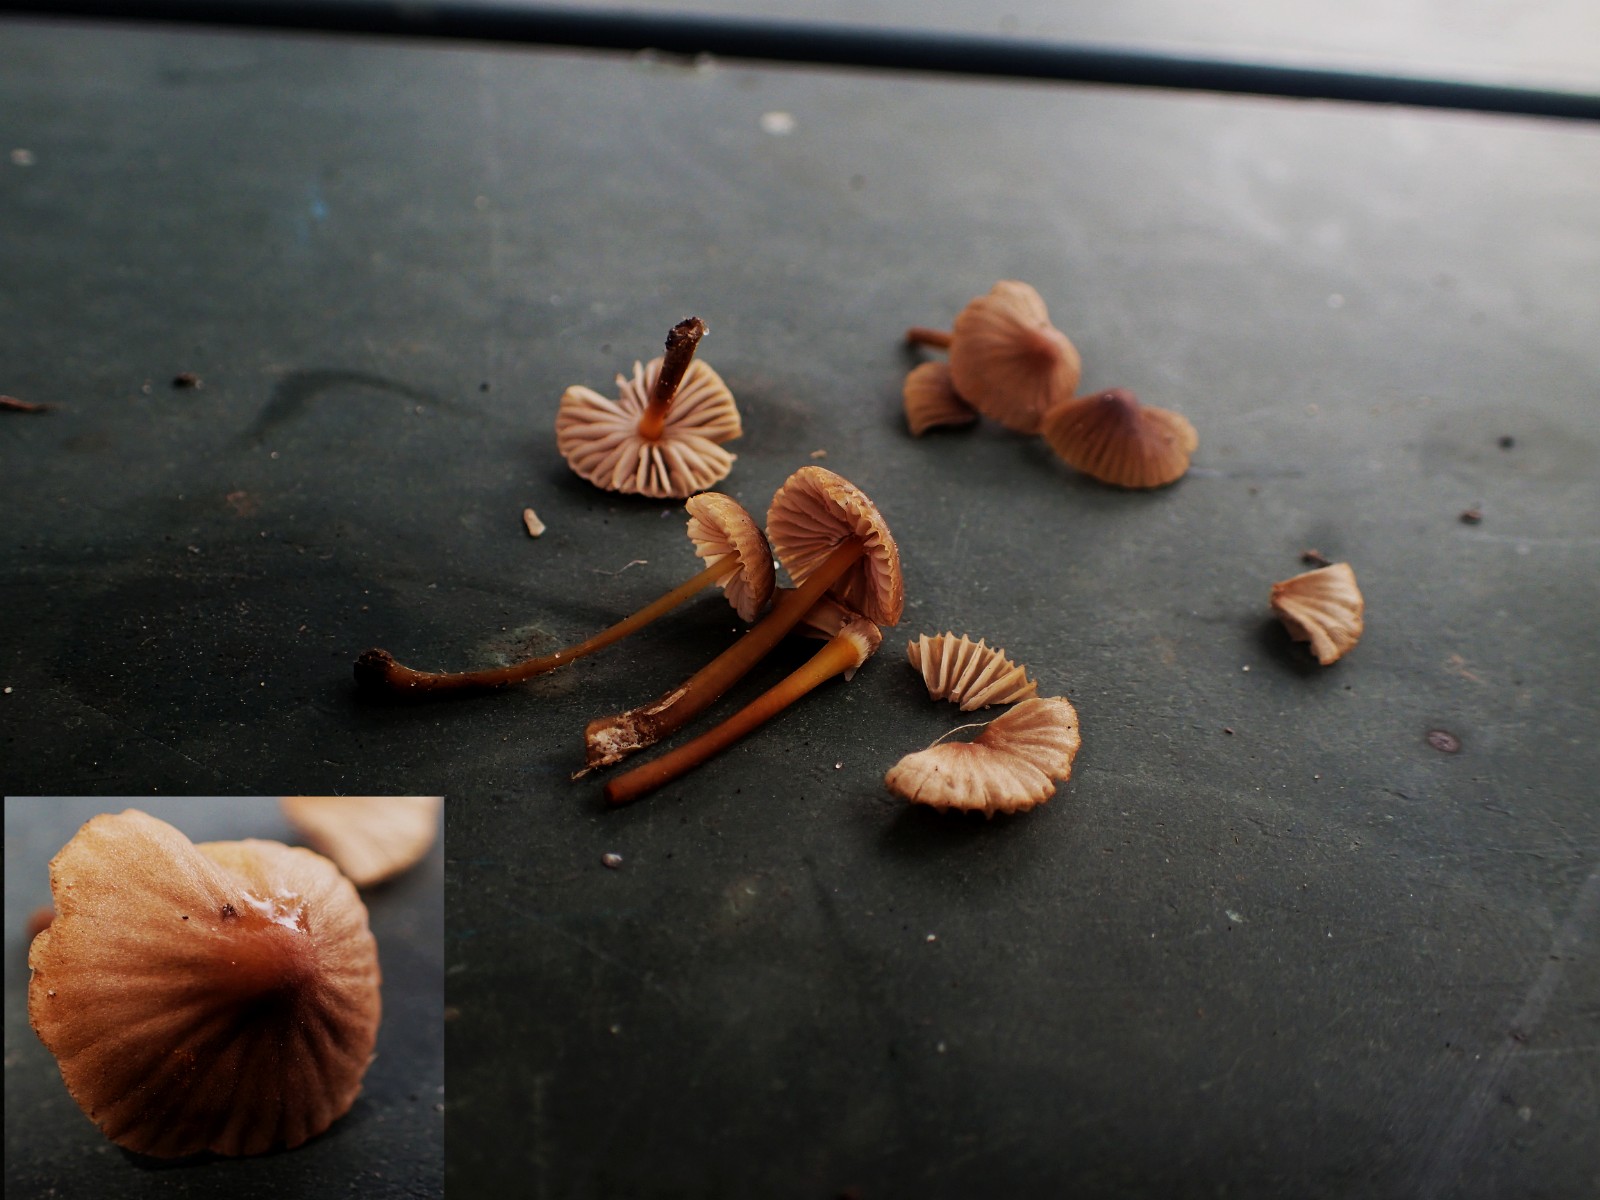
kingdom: Fungi
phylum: Basidiomycota
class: Agaricomycetes
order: Agaricales
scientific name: Agaricales
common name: champignonordenen
